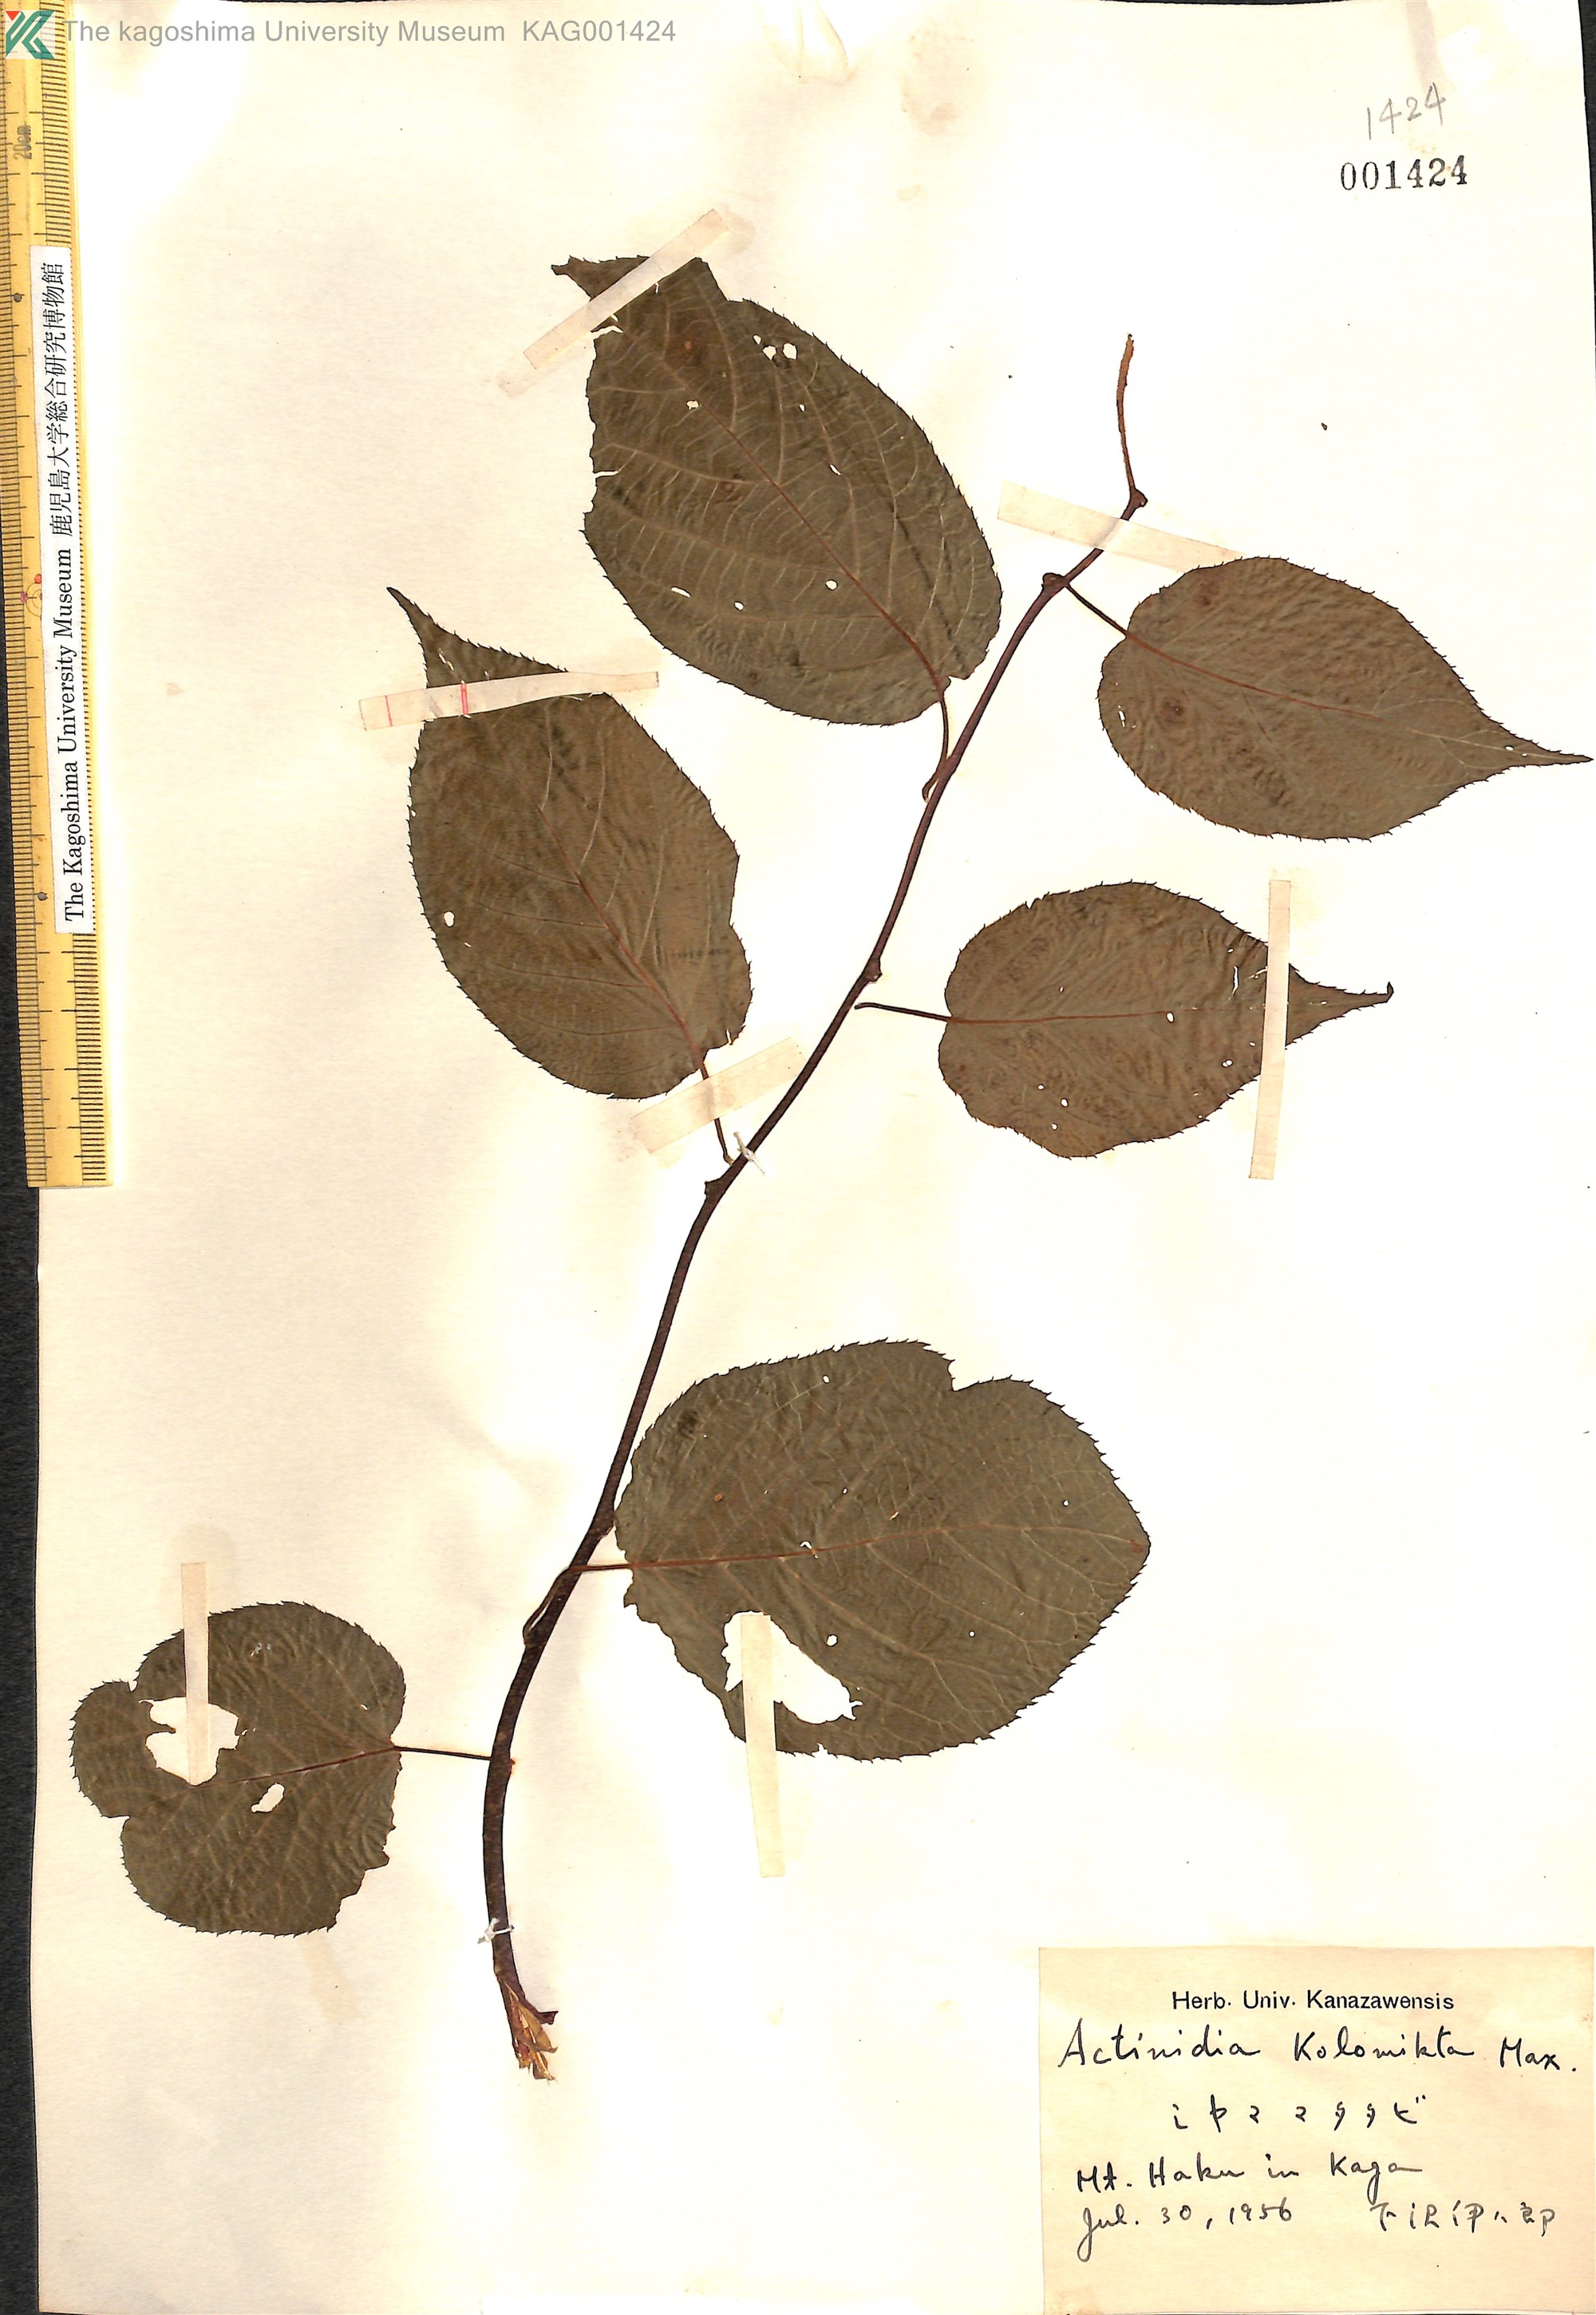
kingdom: Plantae
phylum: Tracheophyta
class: Magnoliopsida
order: Ericales
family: Actinidiaceae
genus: Actinidia
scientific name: Actinidia kolomikta
